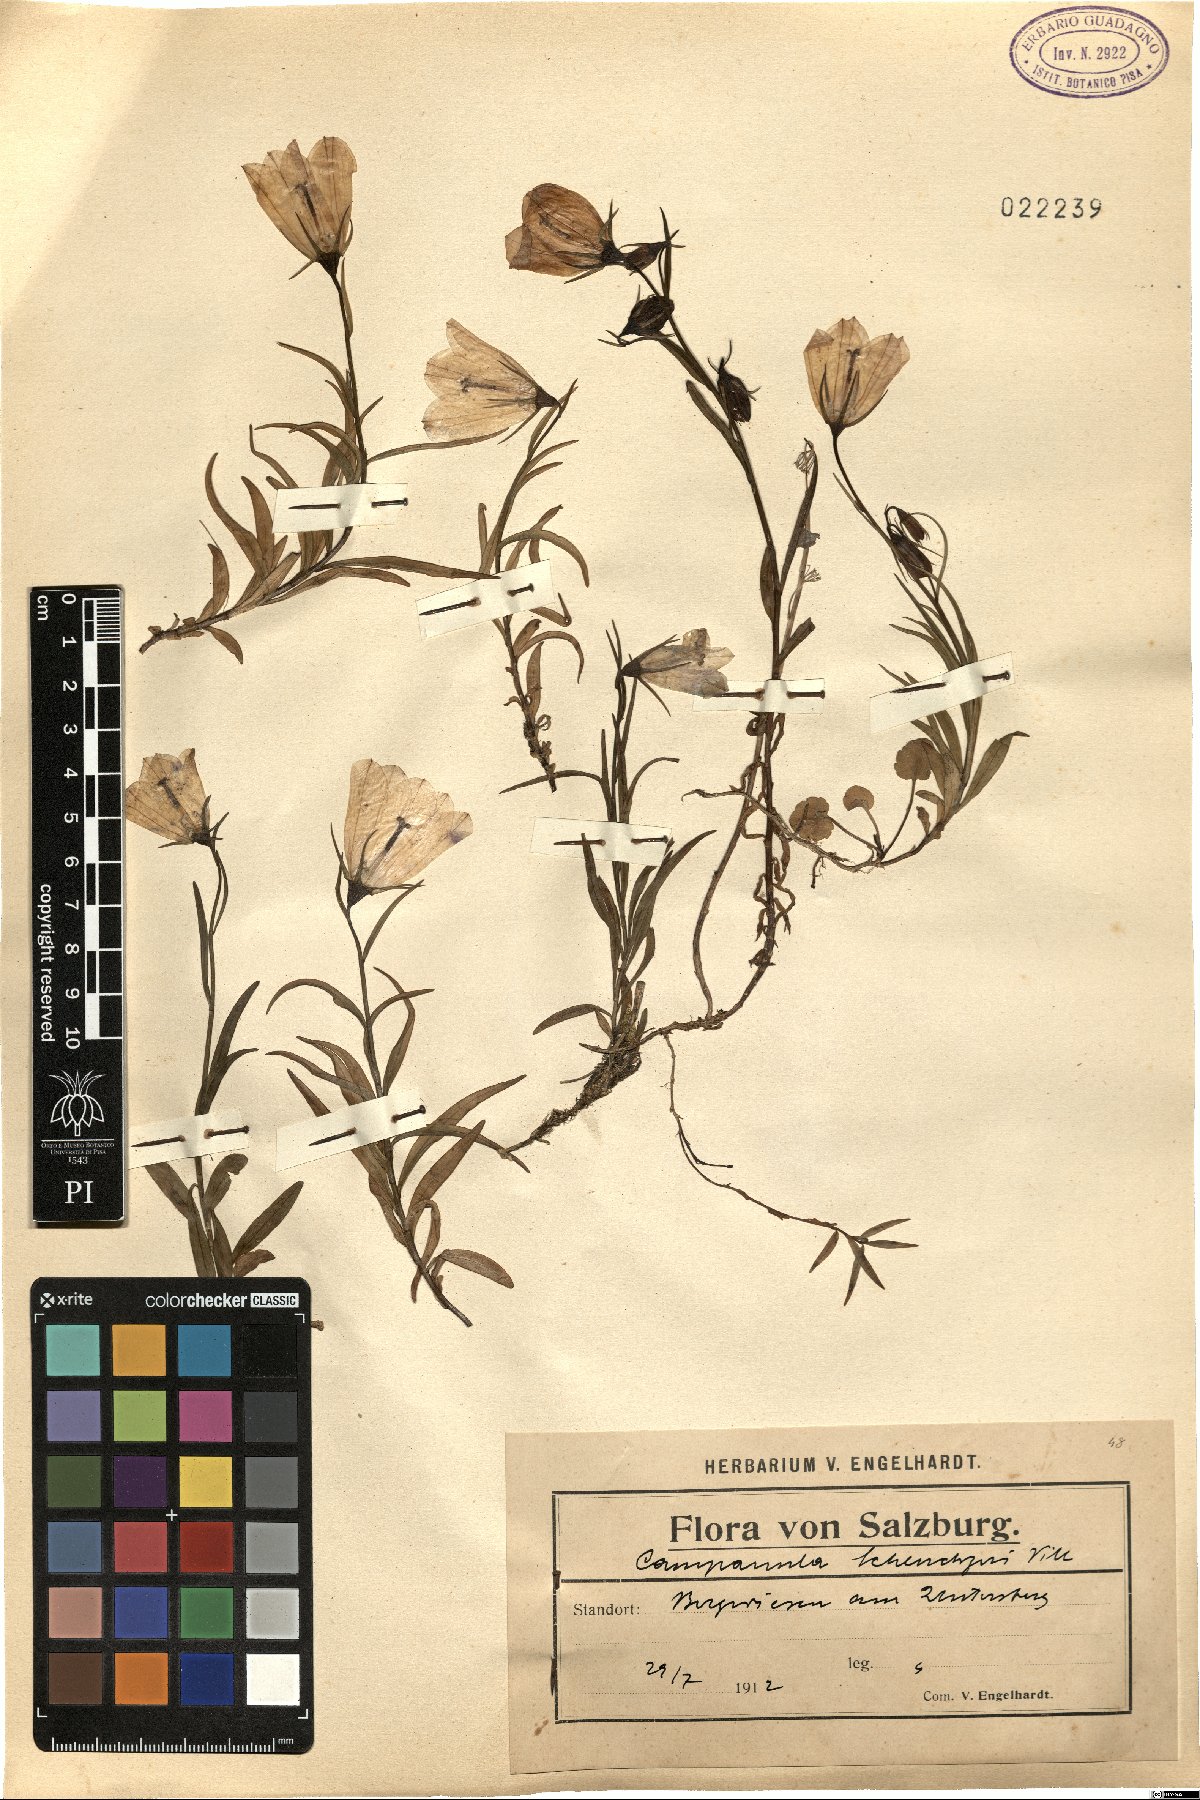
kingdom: Plantae
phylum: Tracheophyta
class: Magnoliopsida
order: Asterales
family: Campanulaceae
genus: Campanula
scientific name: Campanula scheuchzeri
